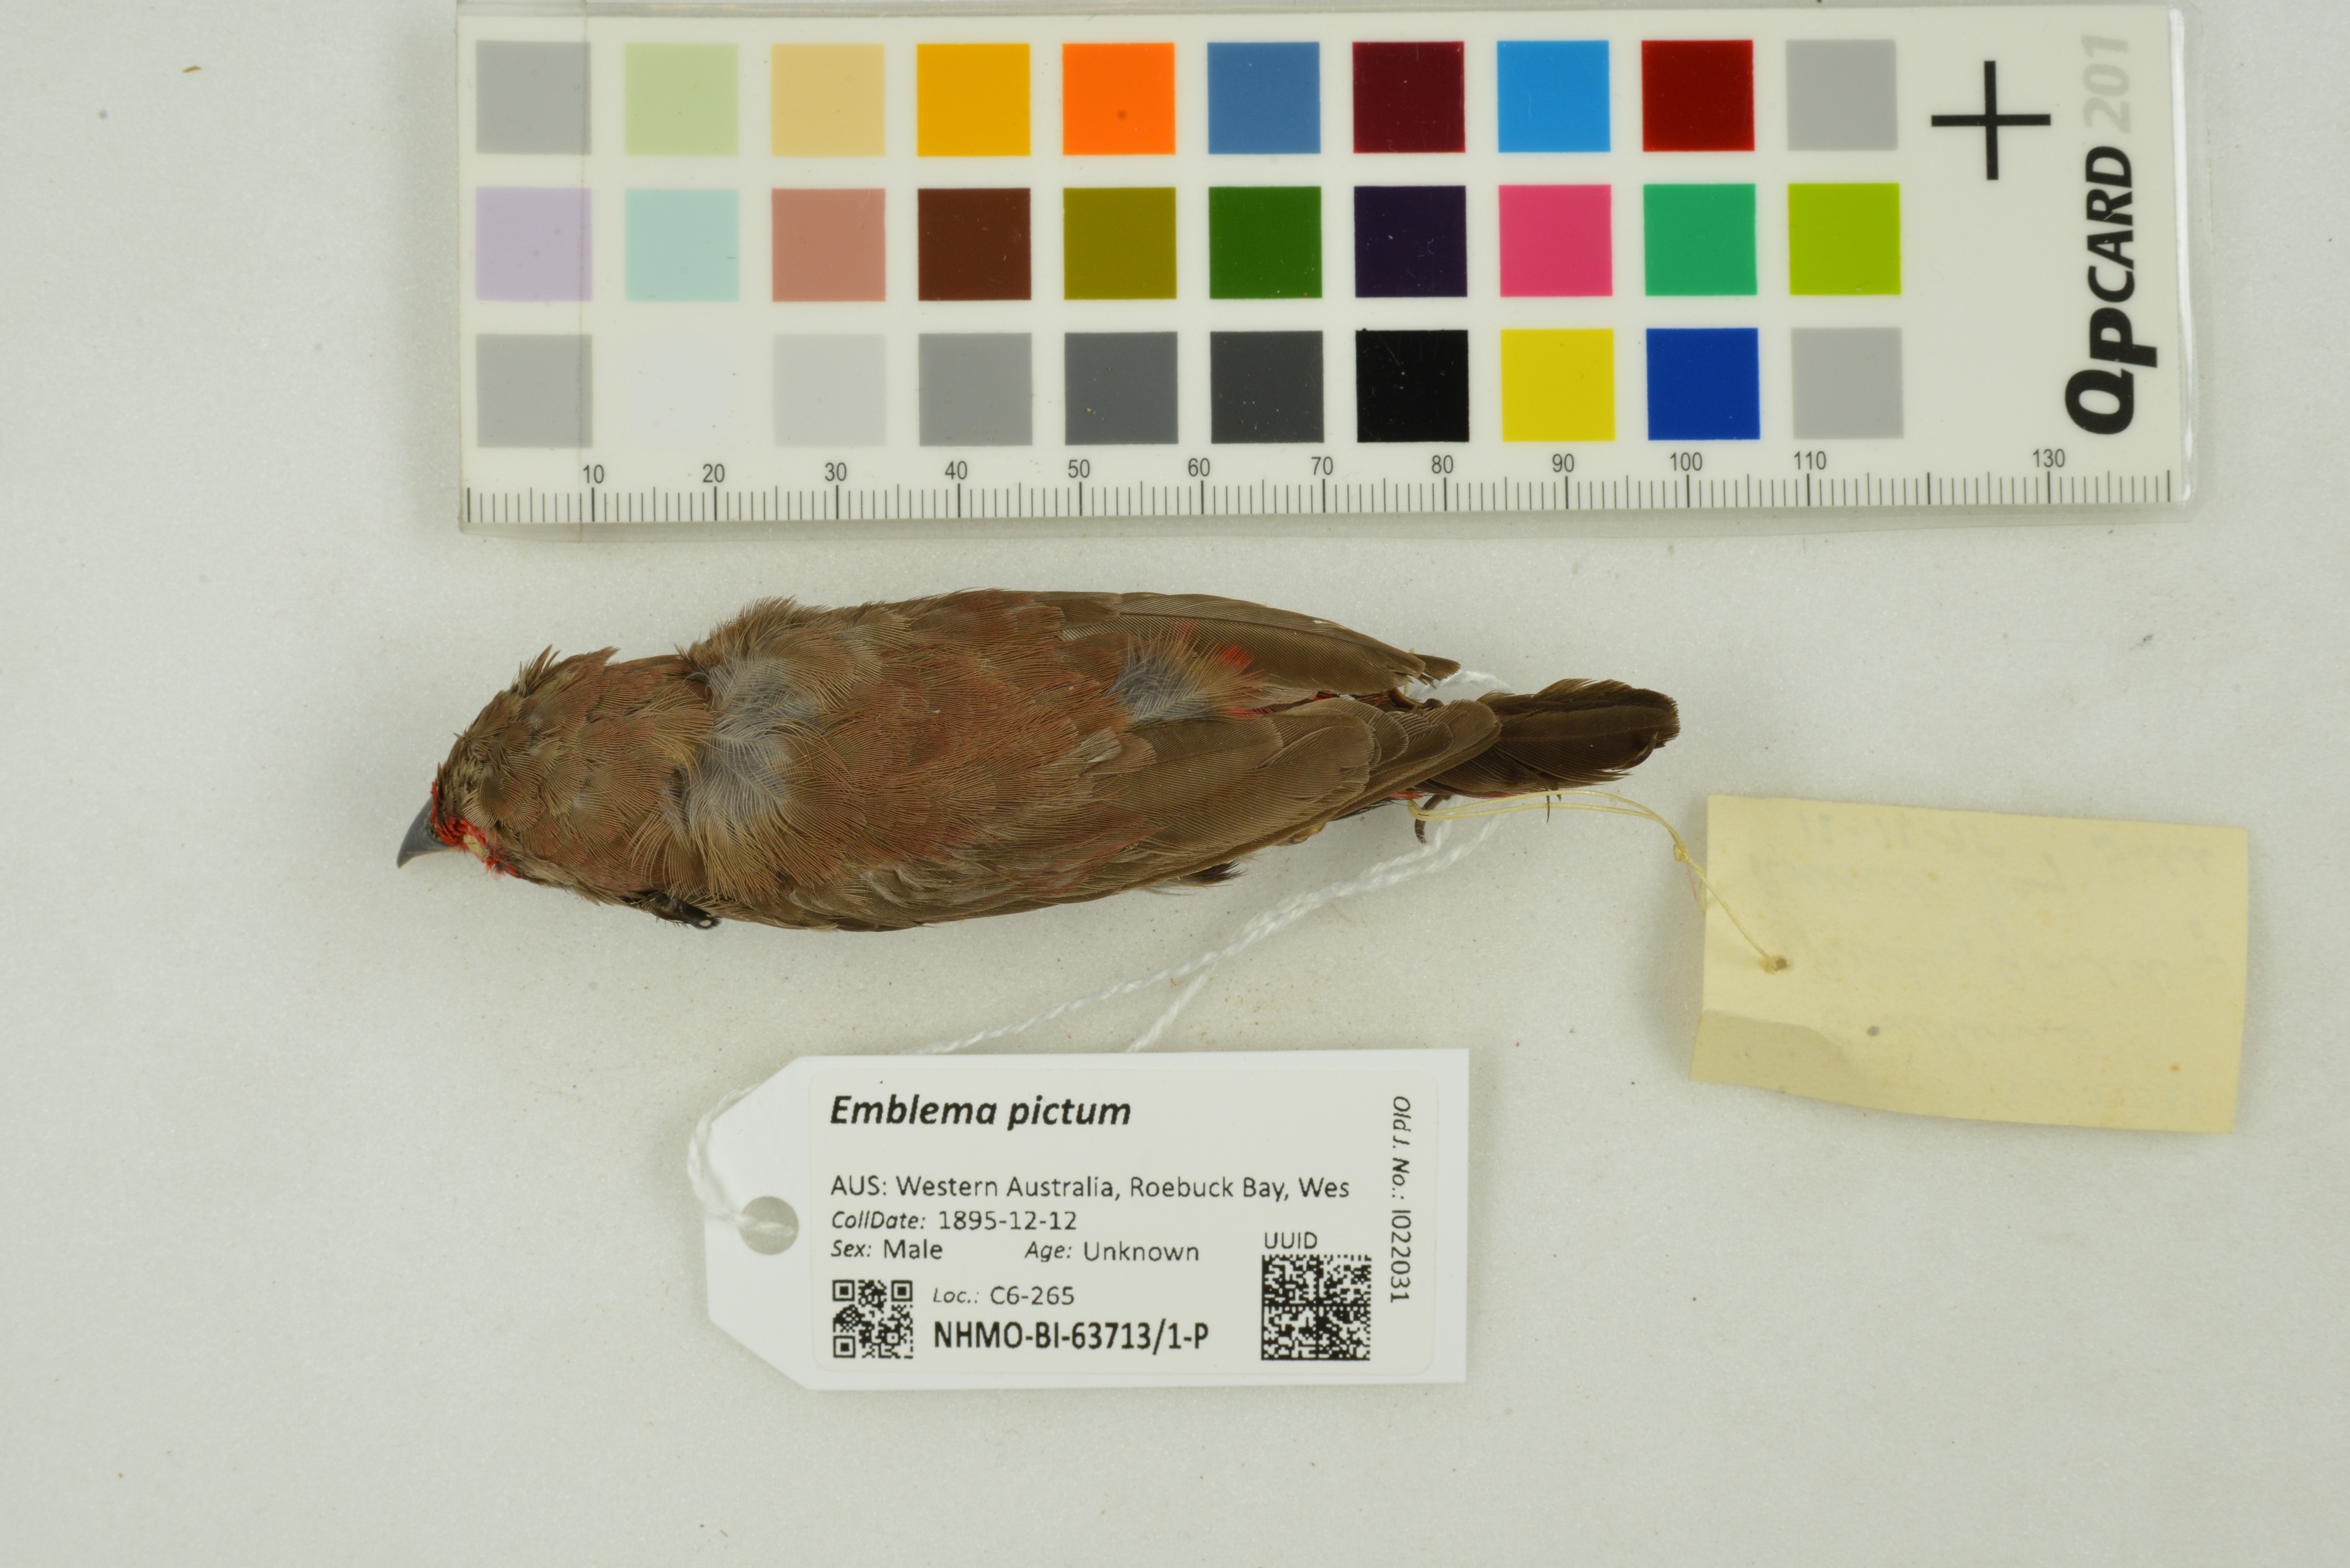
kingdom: Animalia
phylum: Chordata
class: Aves
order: Passeriformes
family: Estrildidae
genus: Emblema
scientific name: Emblema pictum
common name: Painted finch
